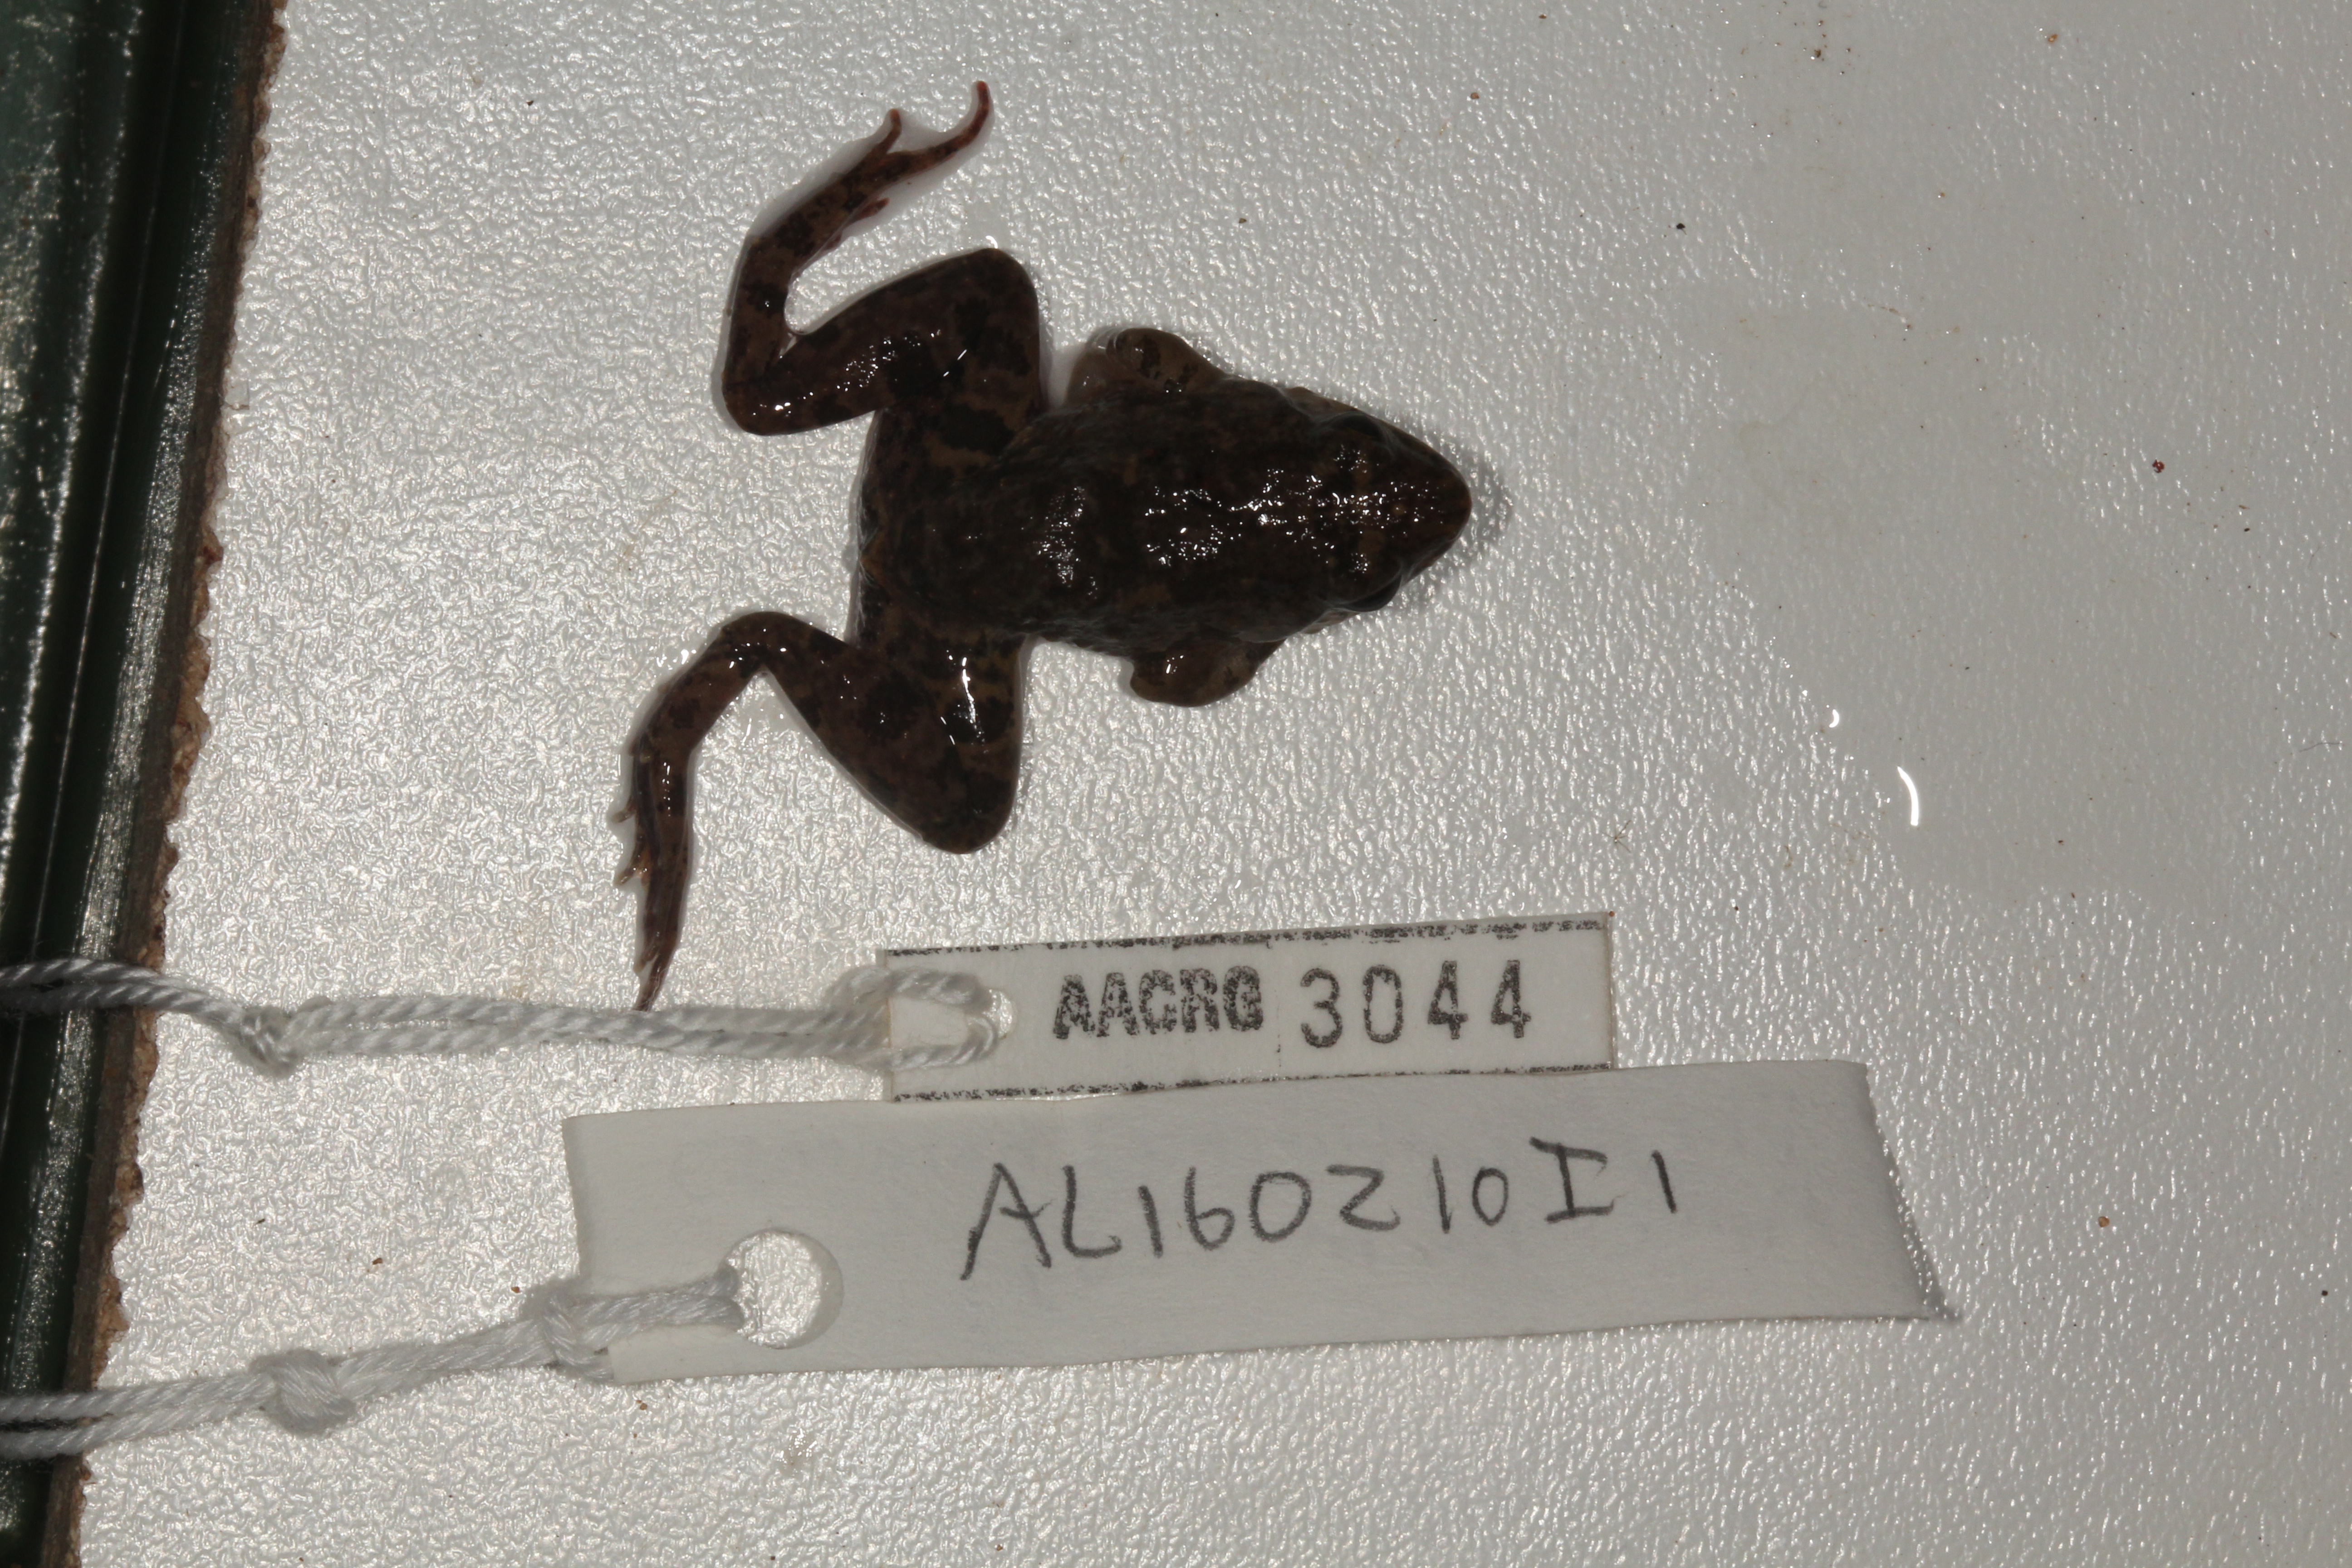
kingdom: Animalia
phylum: Chordata
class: Amphibia
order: Anura
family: Phrynobatrachidae
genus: Phrynobatrachus
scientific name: Phrynobatrachus natalensis
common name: Snoring puddle frog
